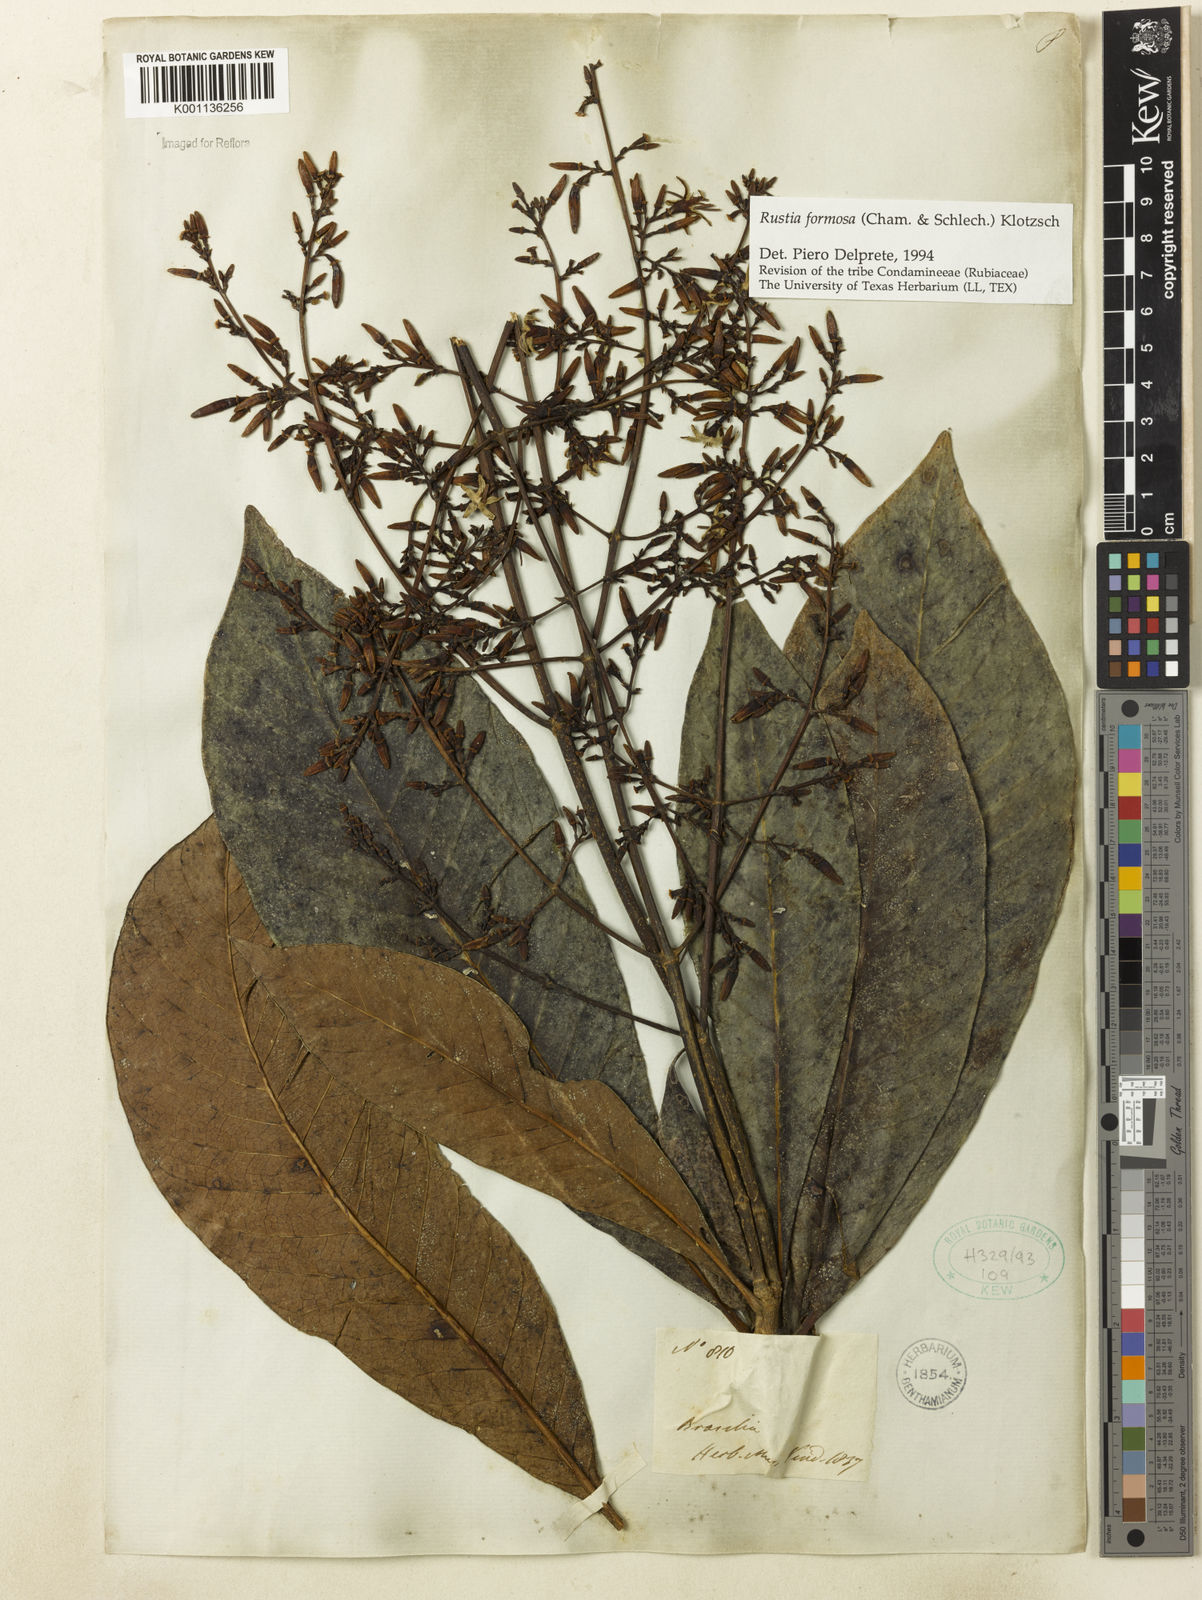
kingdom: Plantae
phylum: Tracheophyta
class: Magnoliopsida
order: Gentianales
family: Rubiaceae
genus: Rustia
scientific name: Rustia formosa
